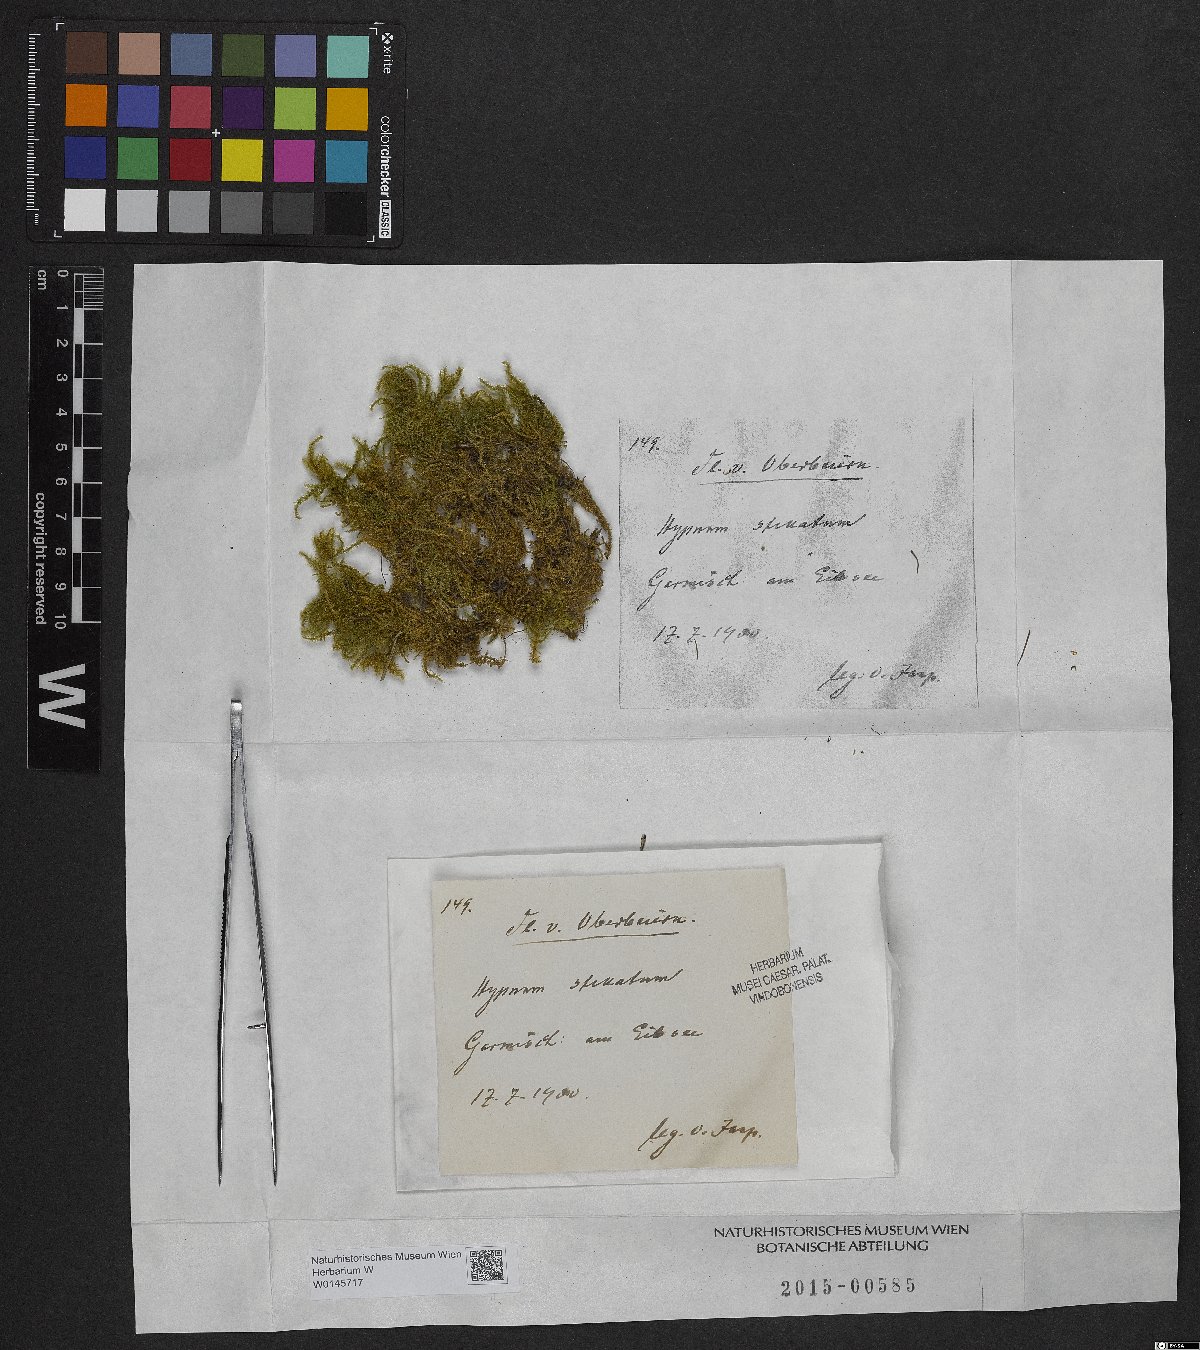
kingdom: Plantae
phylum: Bryophyta
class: Bryopsida
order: Hypnales
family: Amblystegiaceae
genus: Campylium
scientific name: Campylium stellatum
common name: Yellow starry fen moss
